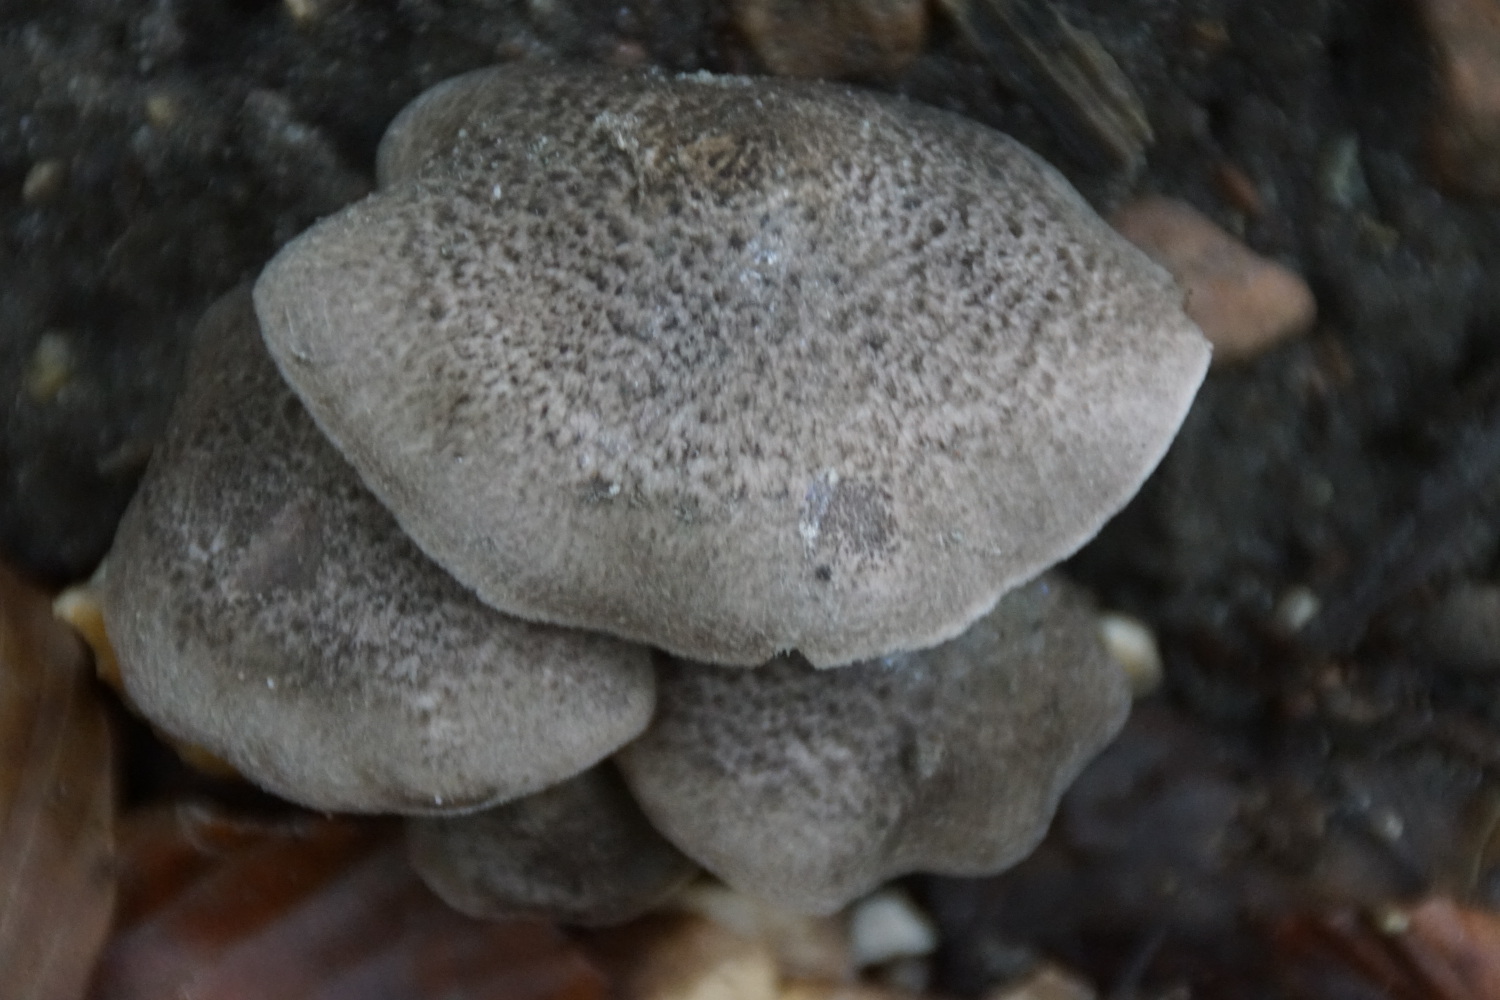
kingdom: Fungi
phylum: Basidiomycota
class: Agaricomycetes
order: Agaricales
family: Tricholomataceae
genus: Tricholoma
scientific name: Tricholoma scalpturatum
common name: gulplettet ridderhat
